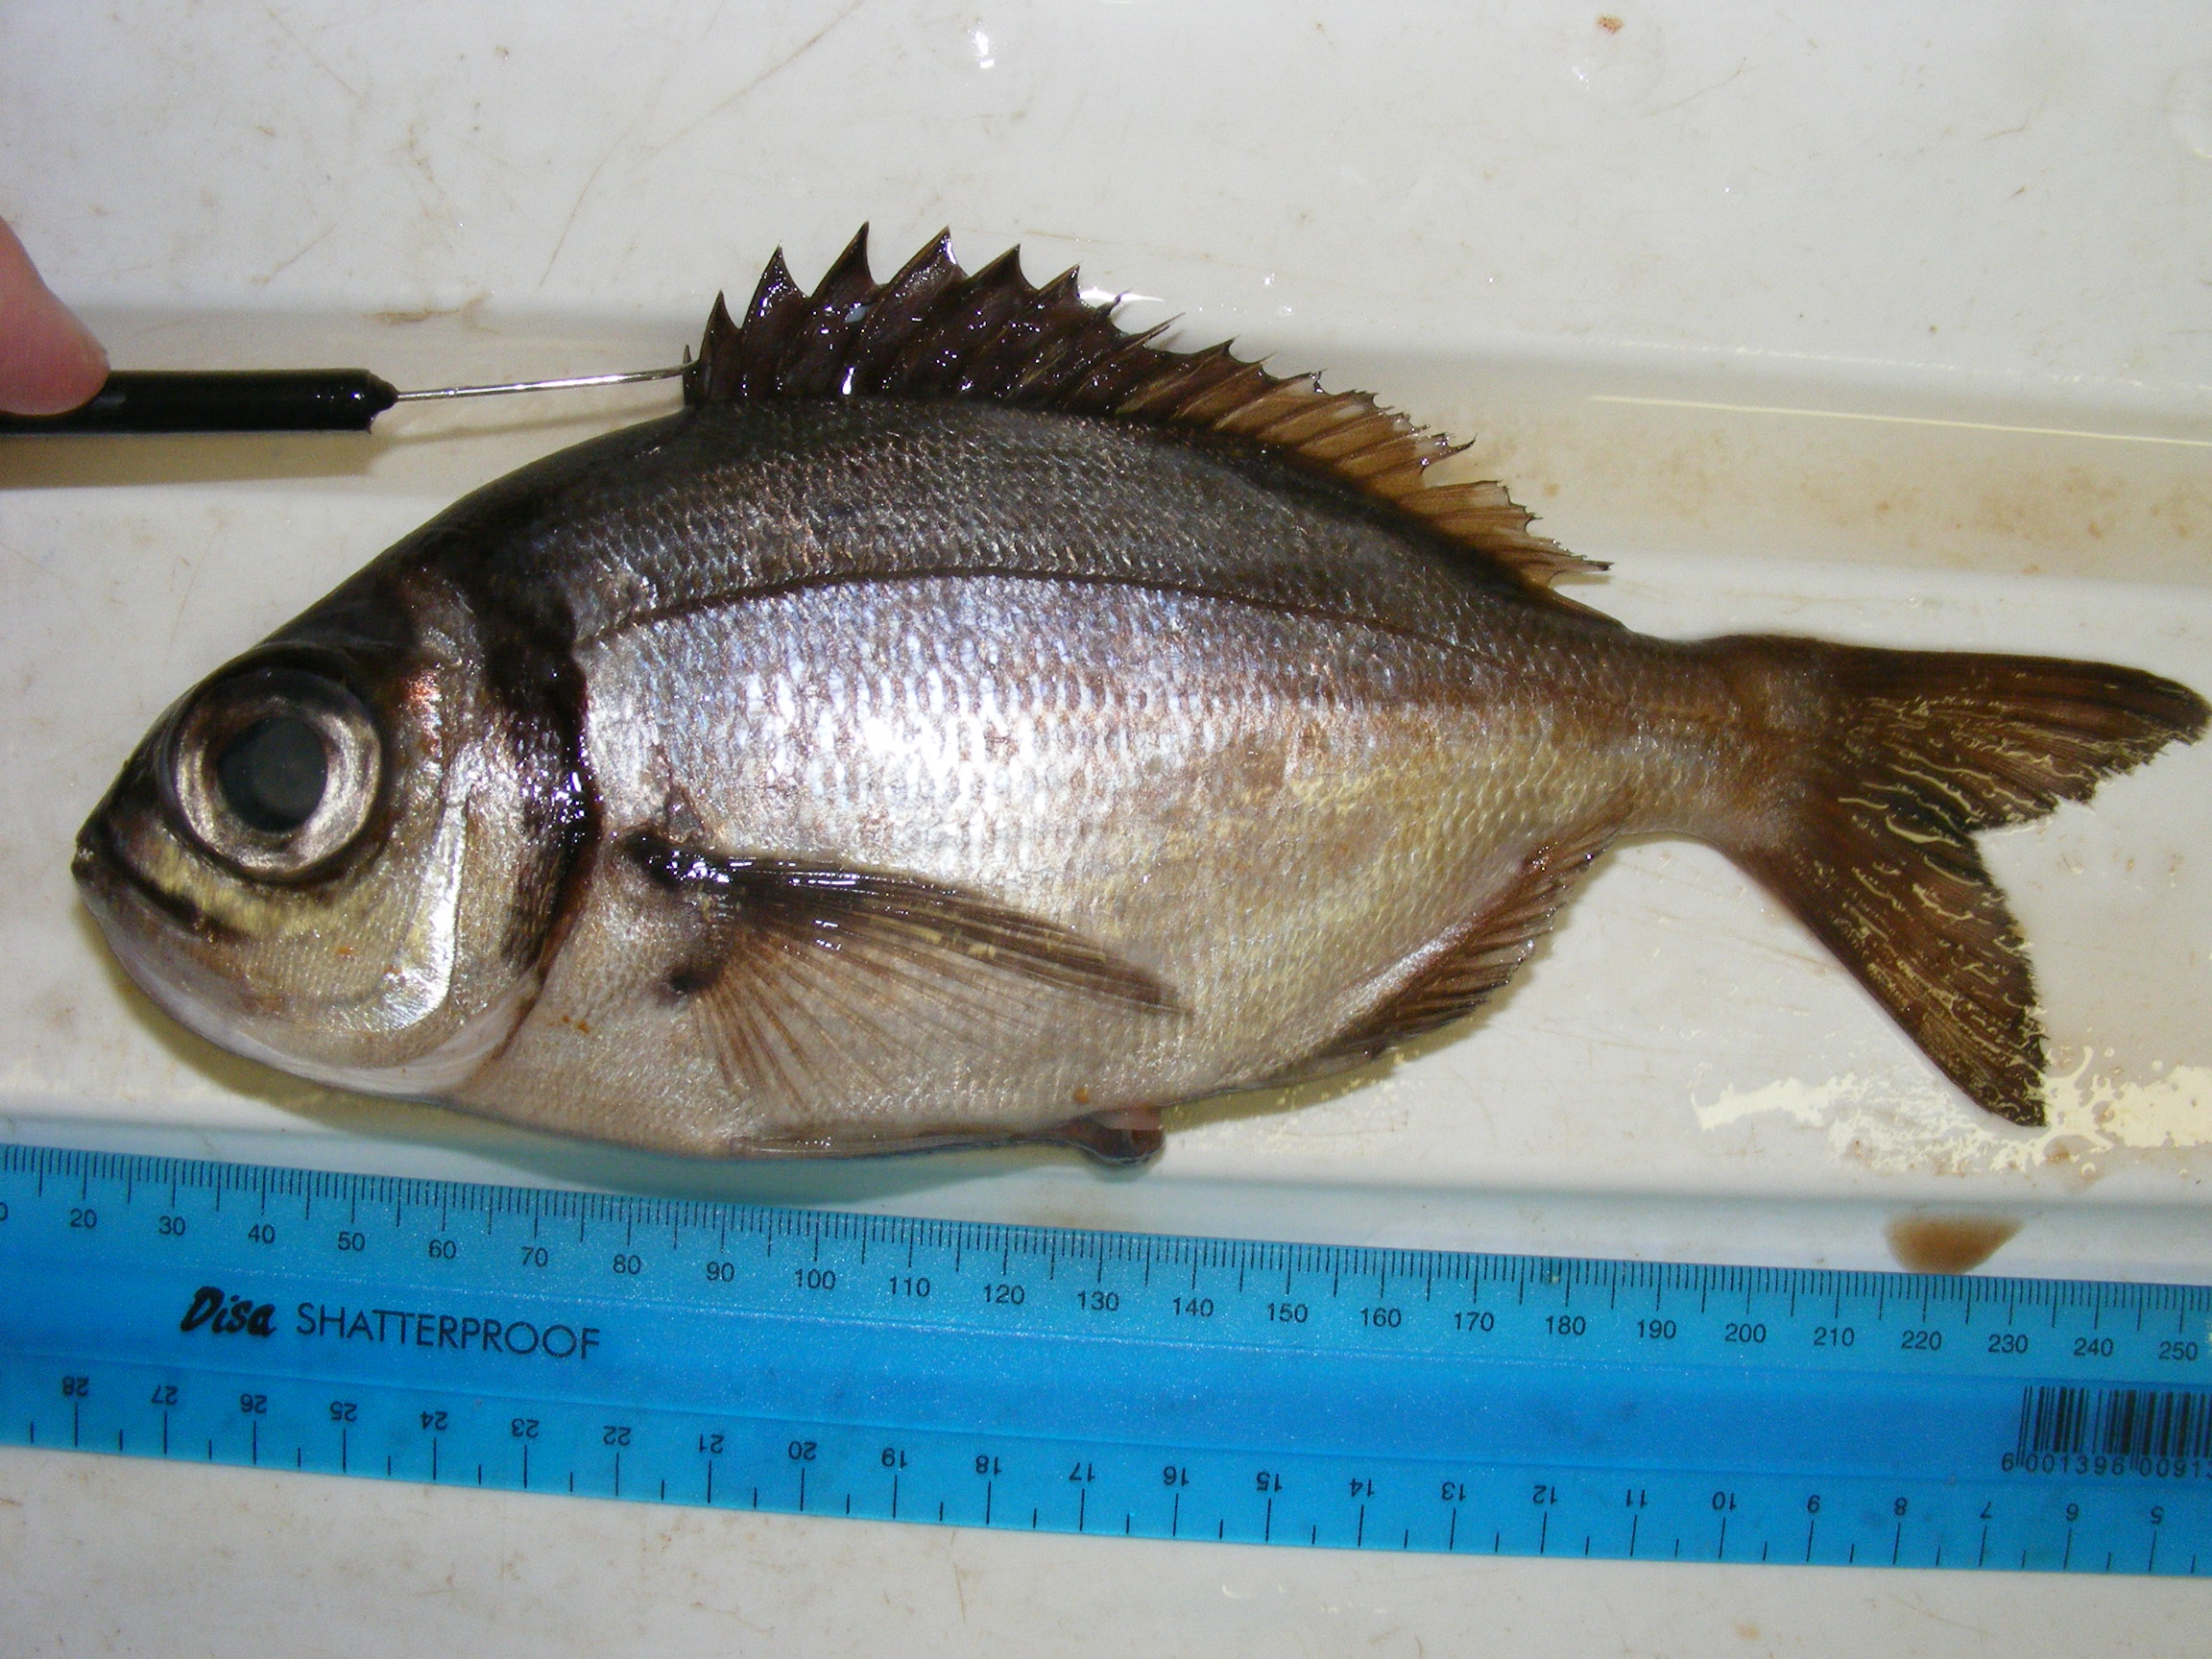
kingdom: Animalia
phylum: Chordata
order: Perciformes
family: Sparidae
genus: Boopsoidea
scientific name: Boopsoidea inornata
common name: Fransmadam
